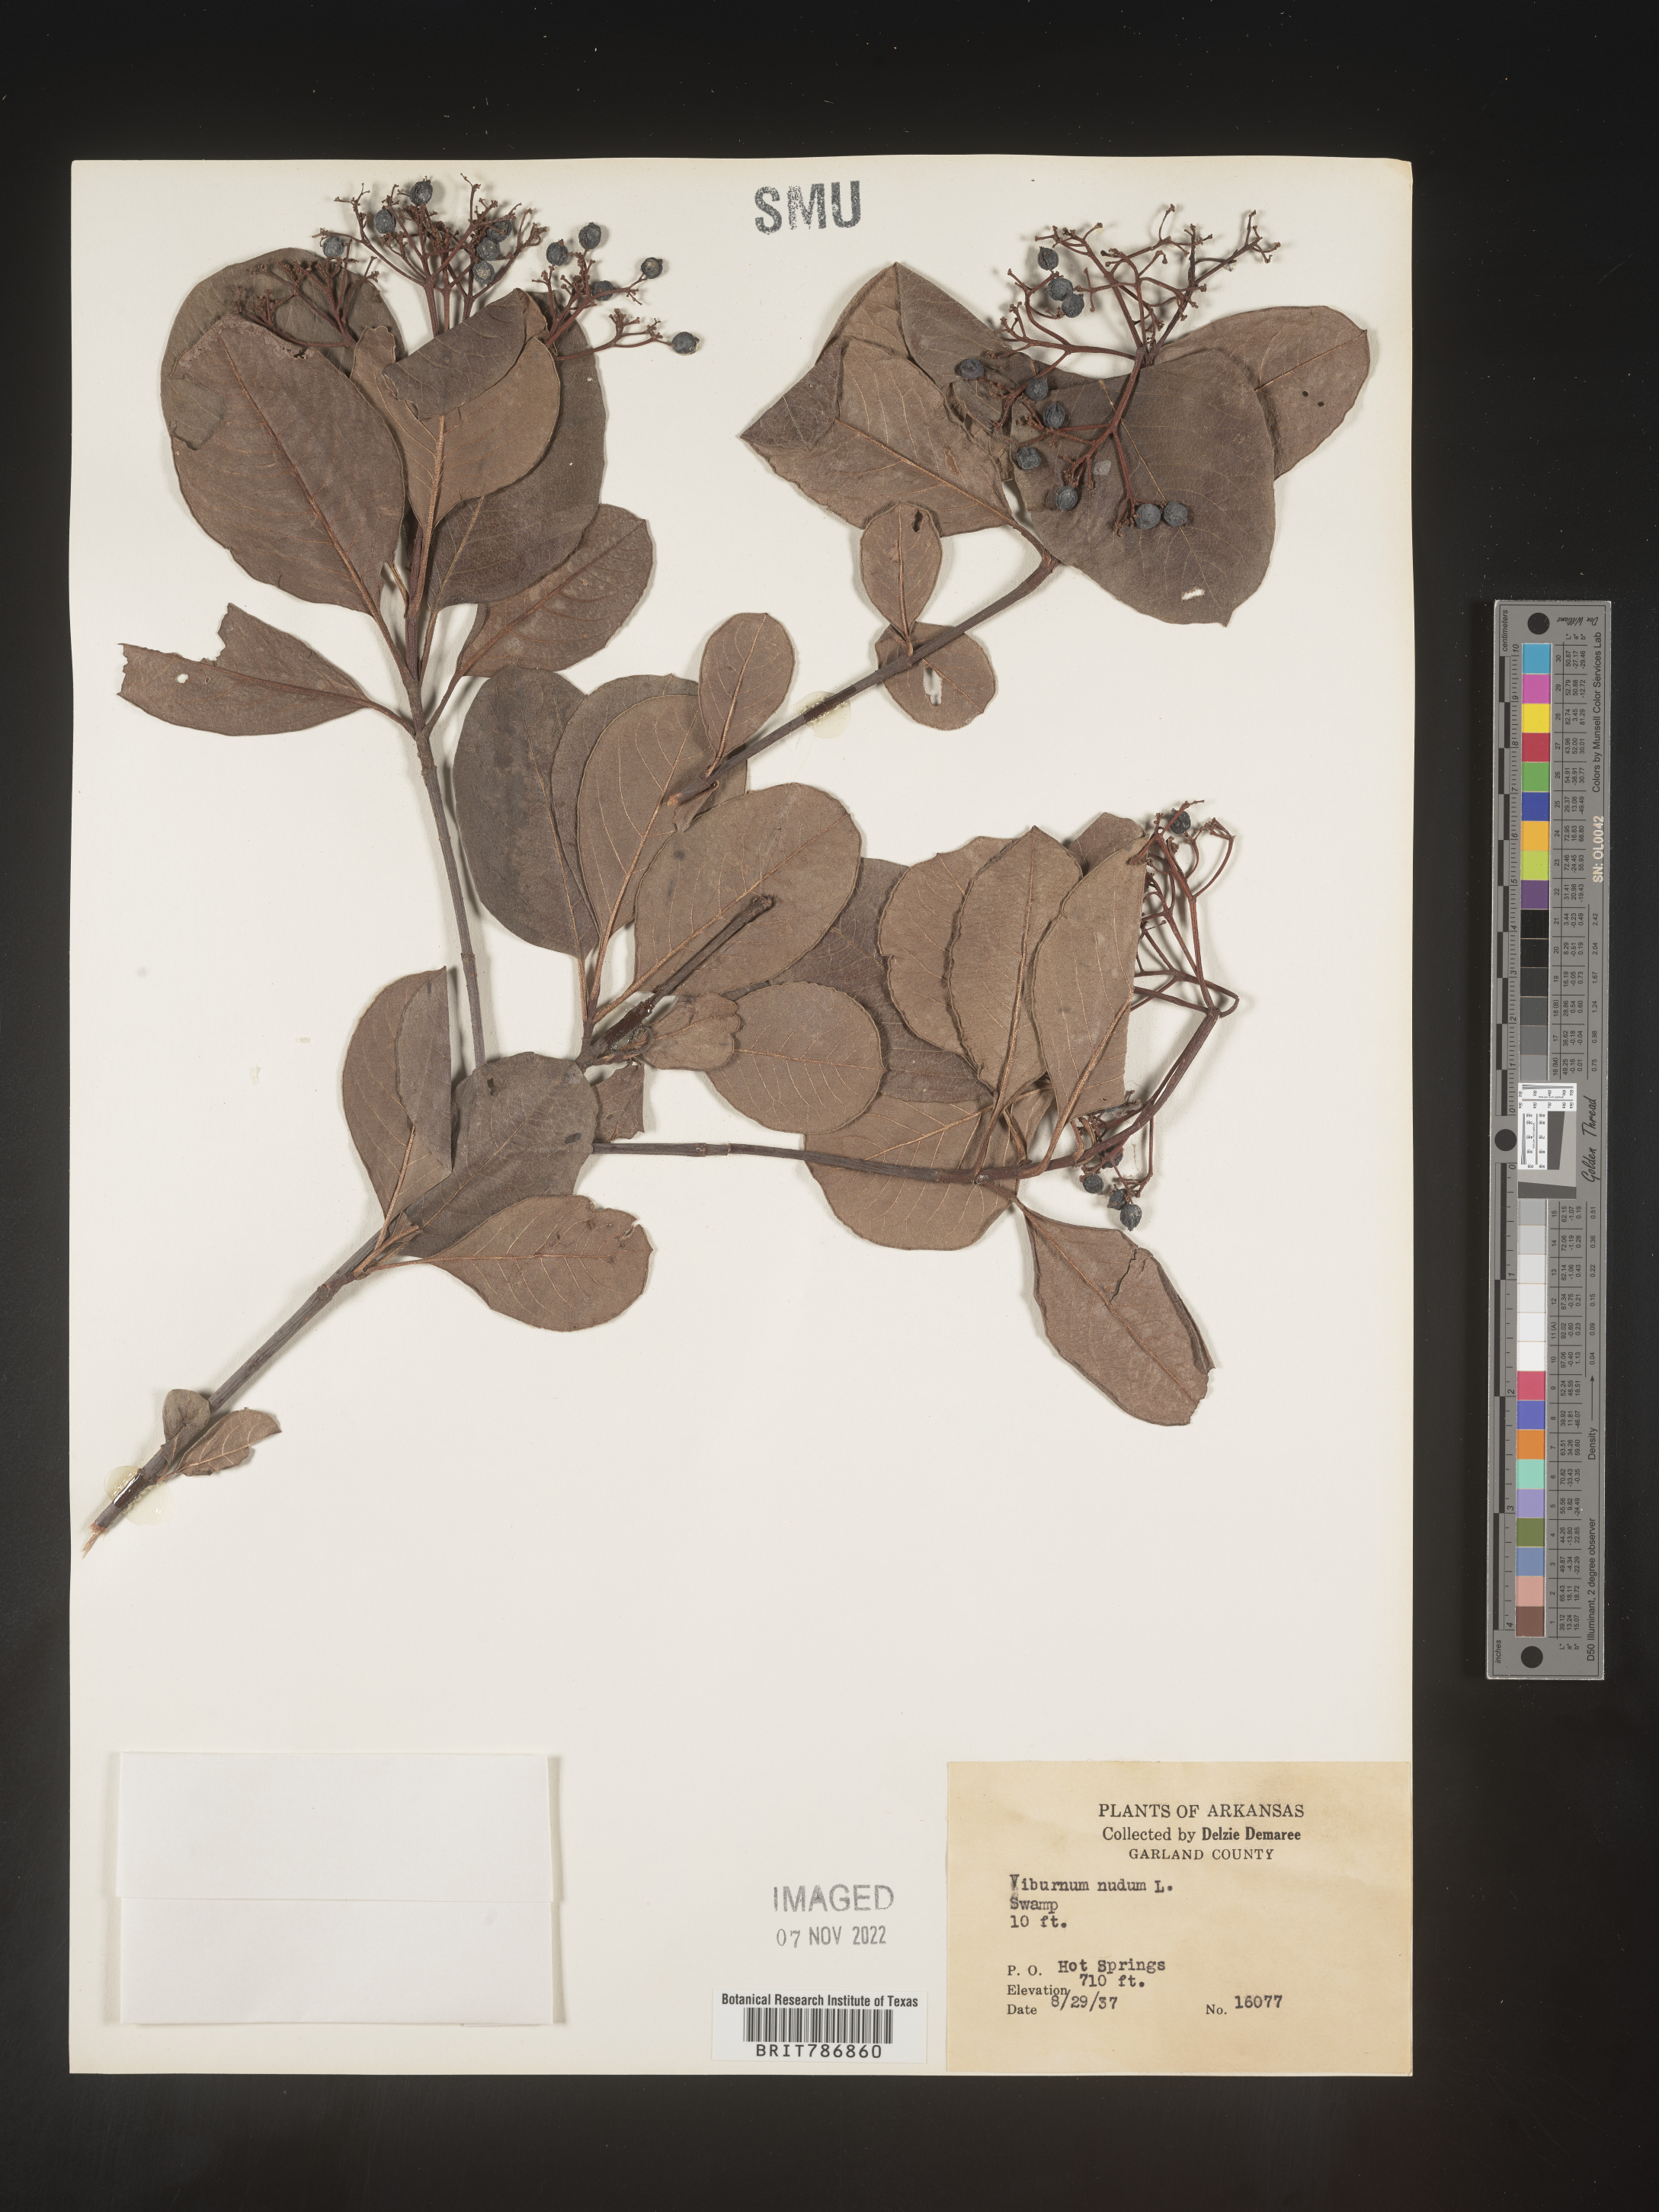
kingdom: Plantae
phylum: Tracheophyta
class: Magnoliopsida
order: Dipsacales
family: Viburnaceae
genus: Viburnum
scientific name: Viburnum nudum
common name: Possum haw
